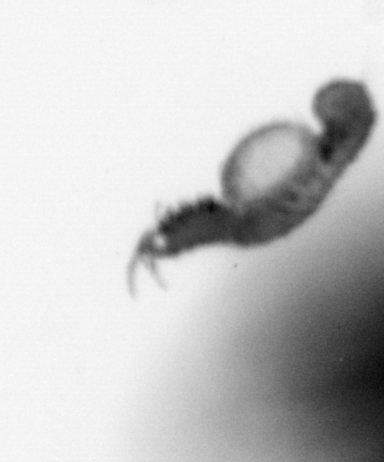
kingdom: Animalia
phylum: Annelida
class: Polychaeta
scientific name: Polychaeta
